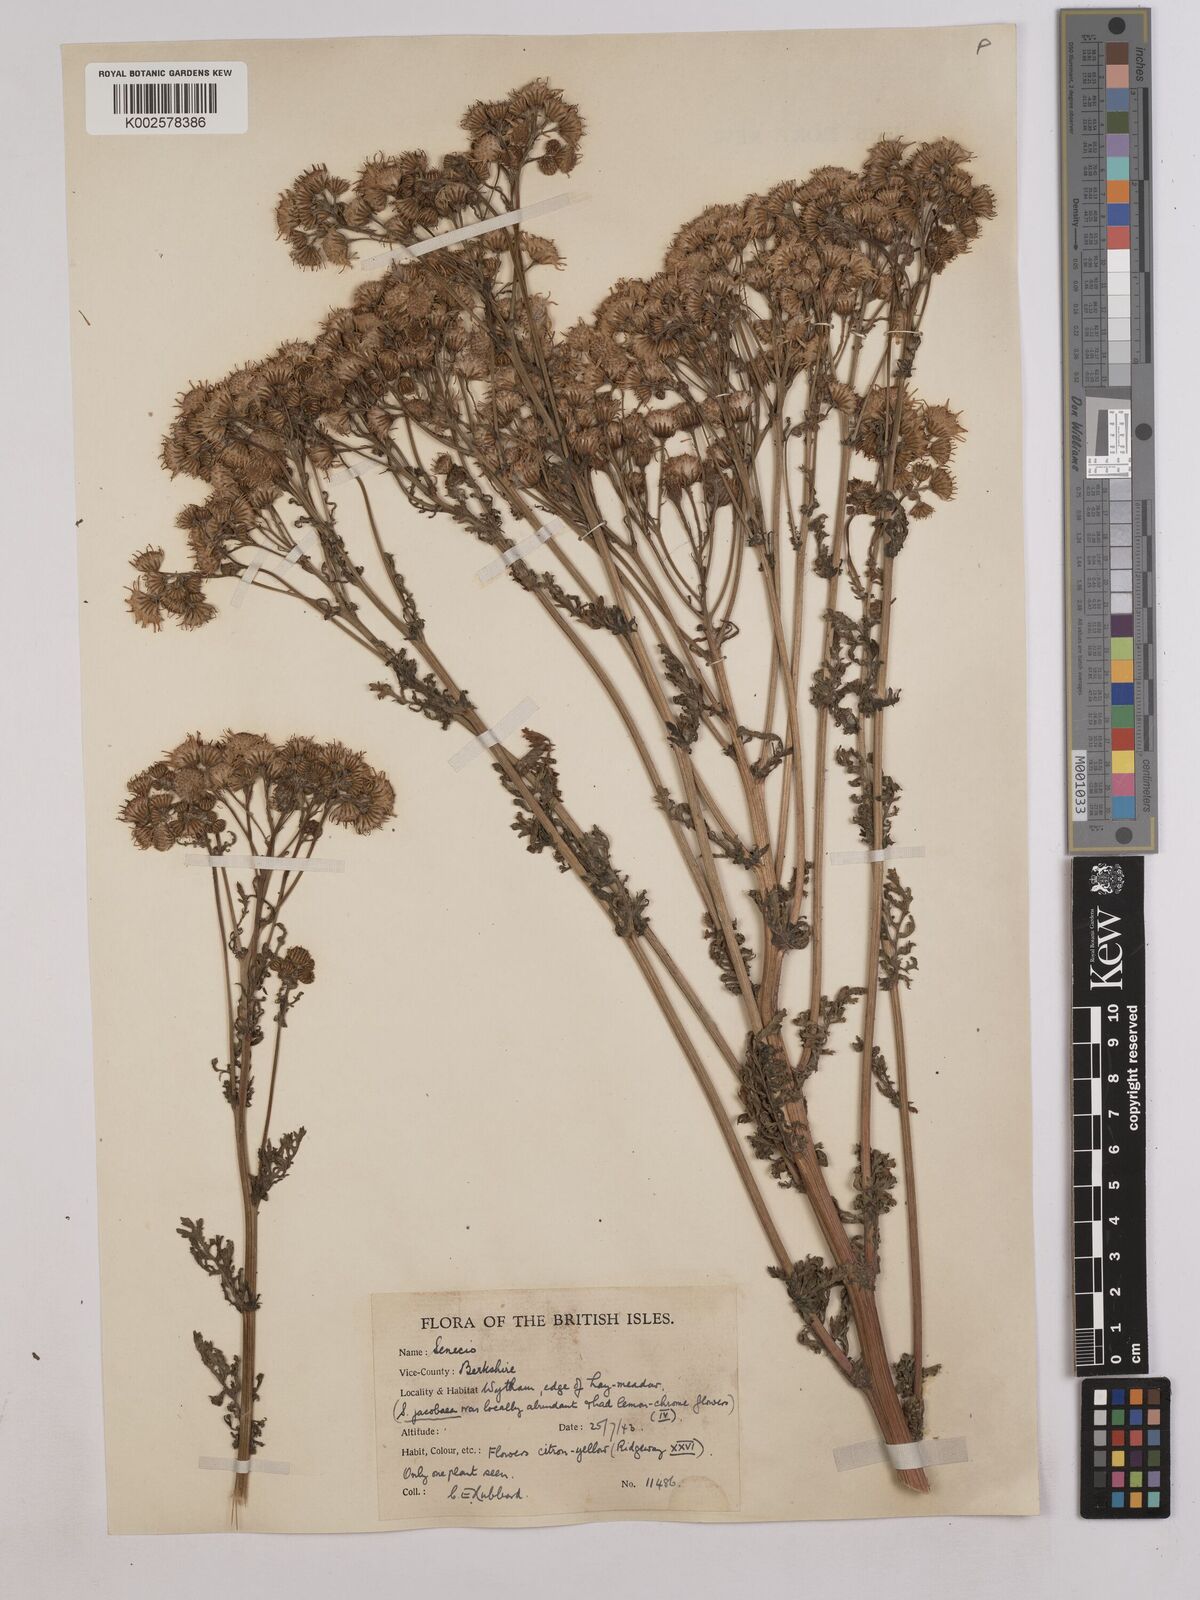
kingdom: Plantae
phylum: Tracheophyta
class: Magnoliopsida
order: Asterales
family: Asteraceae
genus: Jacobaea
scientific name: Jacobaea vulgaris
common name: Stinking willie
